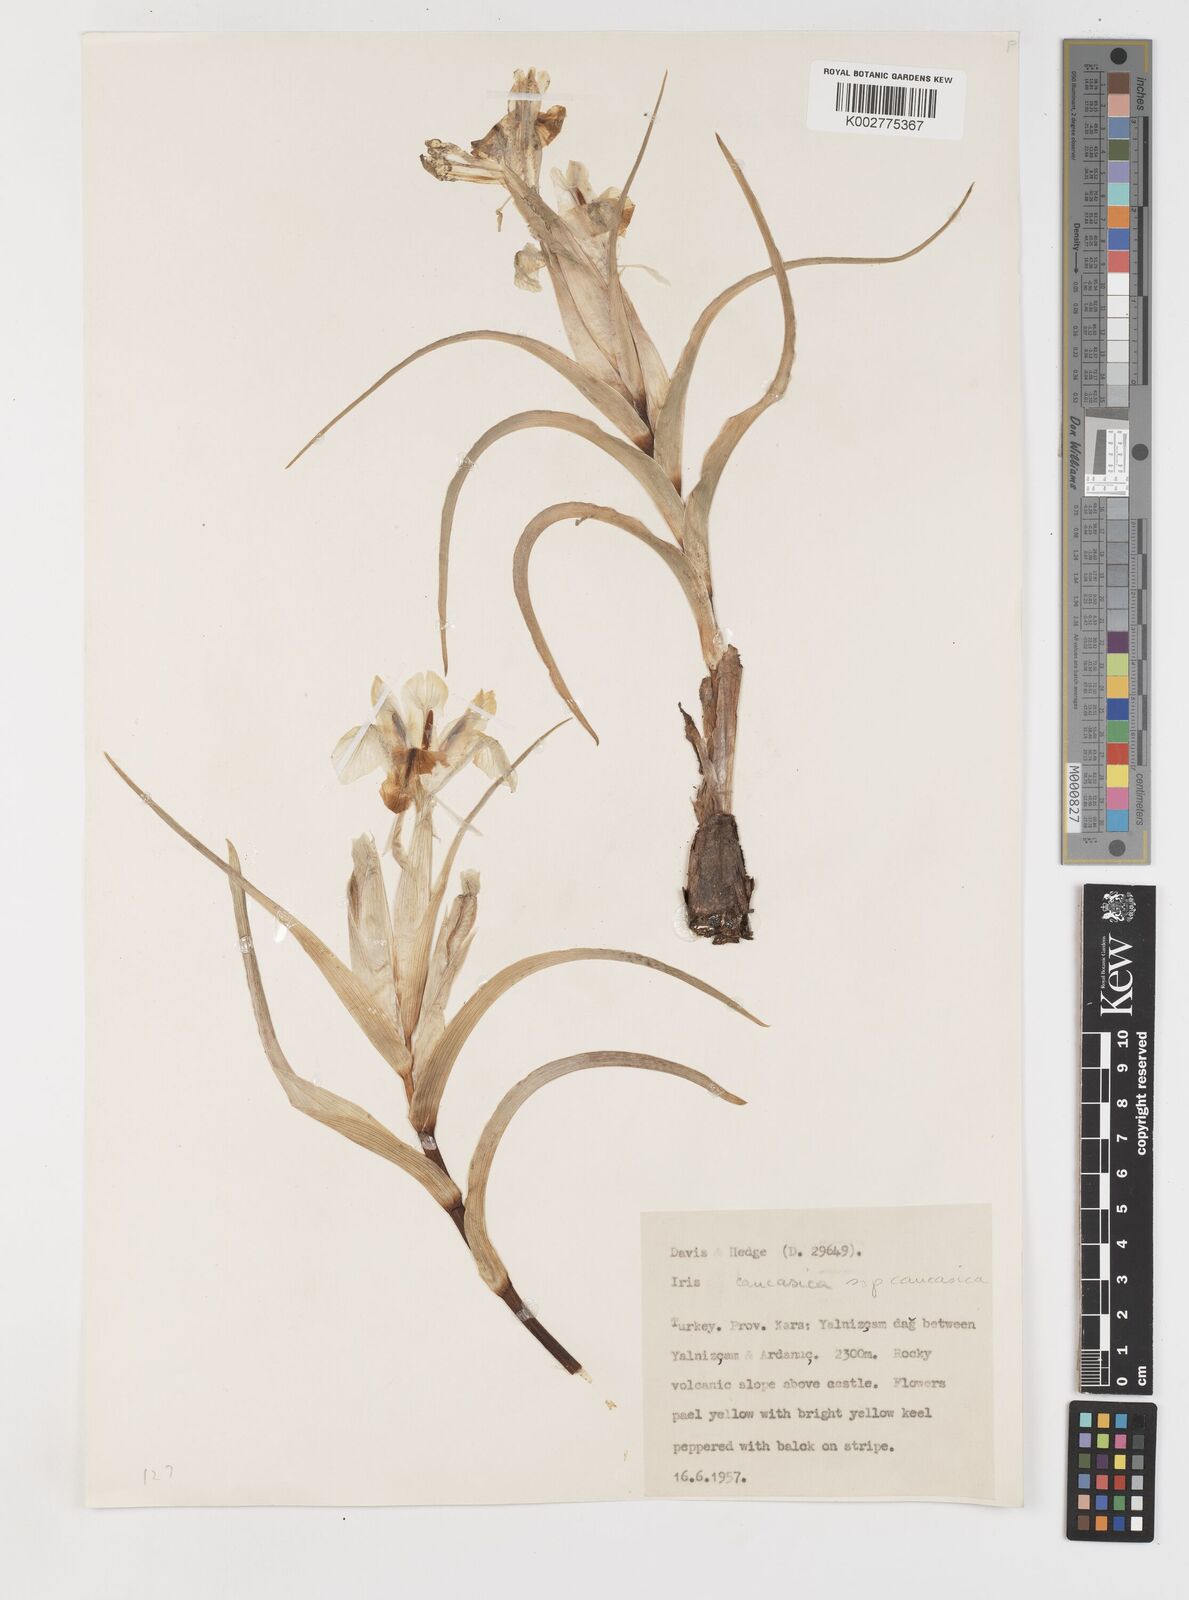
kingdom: Plantae
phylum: Tracheophyta
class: Liliopsida
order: Asparagales
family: Iridaceae
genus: Iris
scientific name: Iris caucasica
